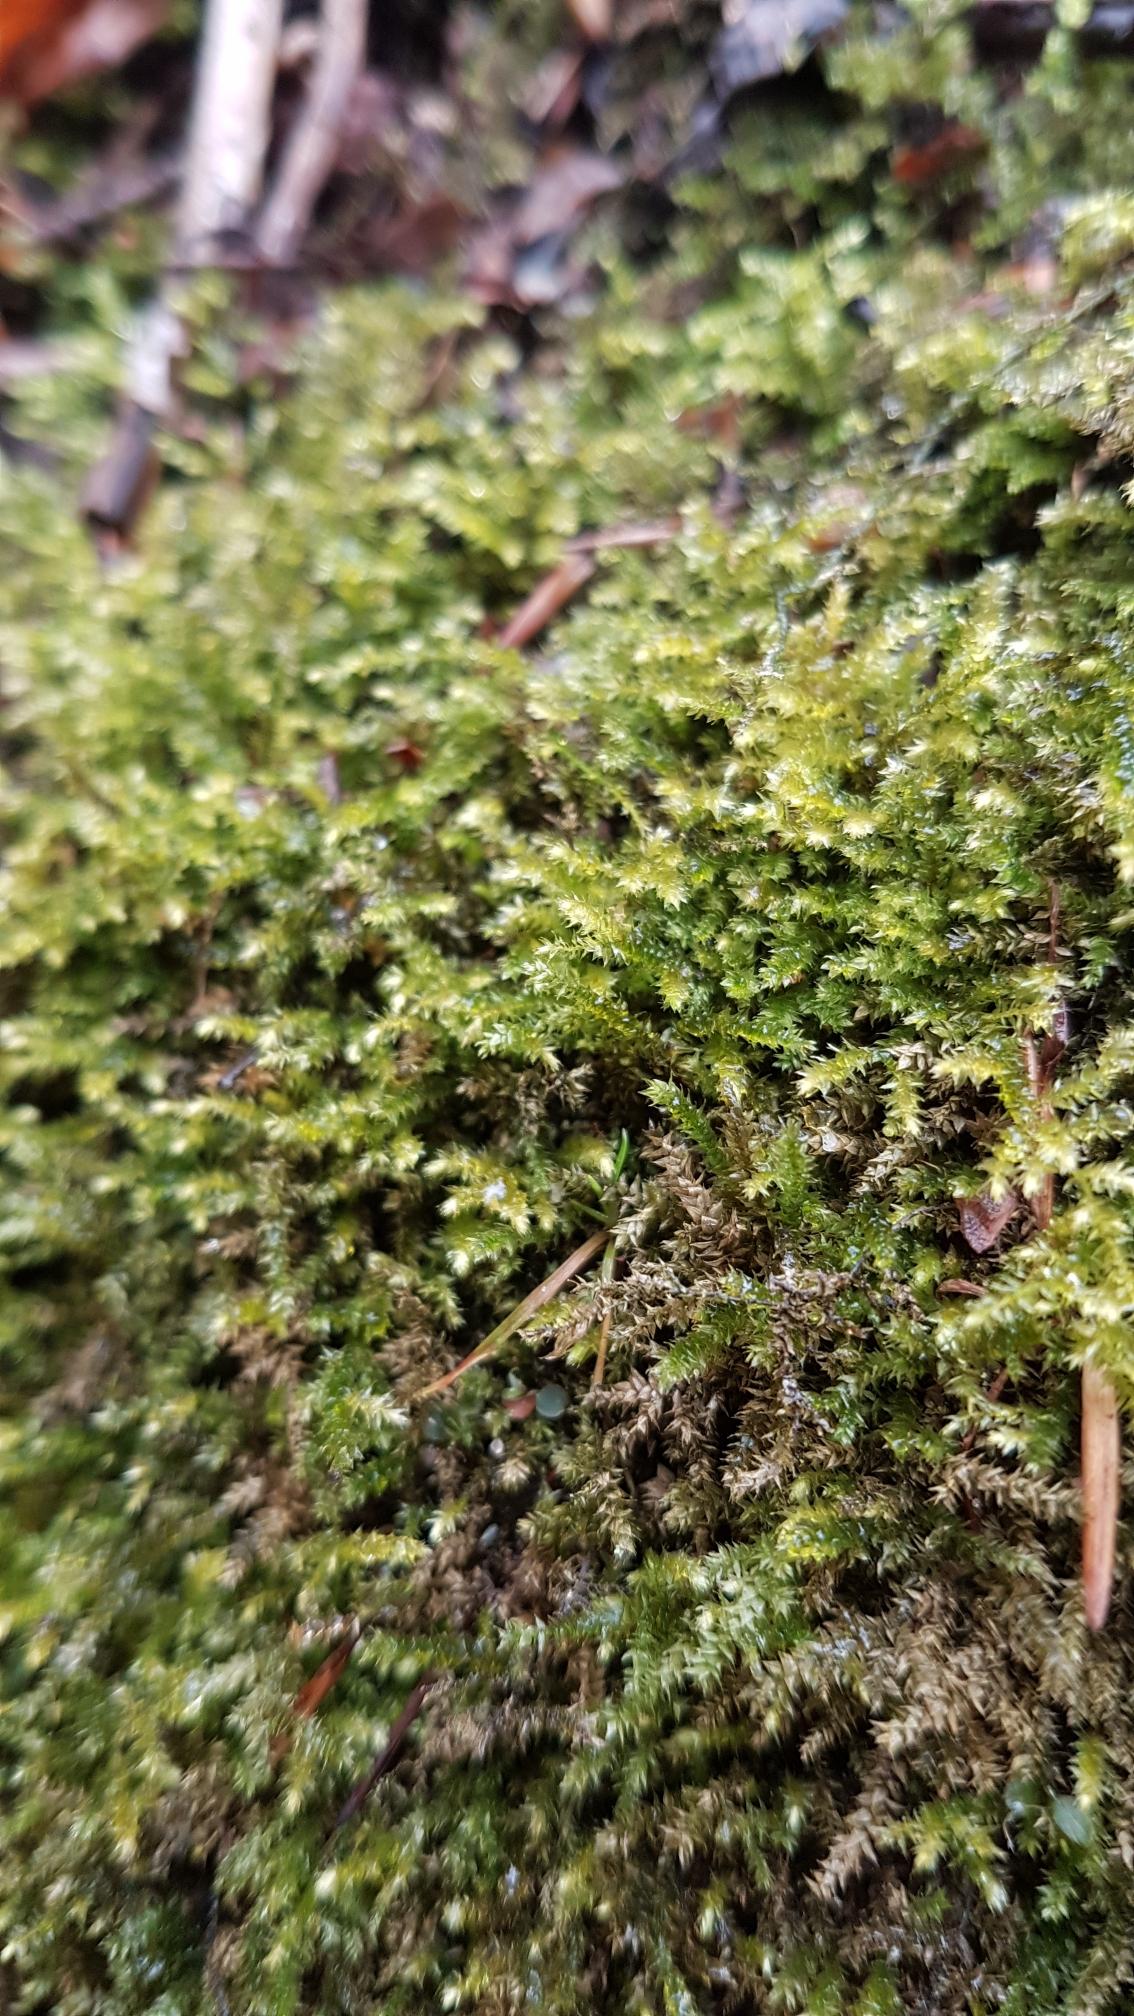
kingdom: Plantae
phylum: Bryophyta
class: Bryopsida
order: Hypnales
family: Brachytheciaceae
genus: Oxyrrhynchium
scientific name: Oxyrrhynchium schleicheri
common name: Vredet vortetand
